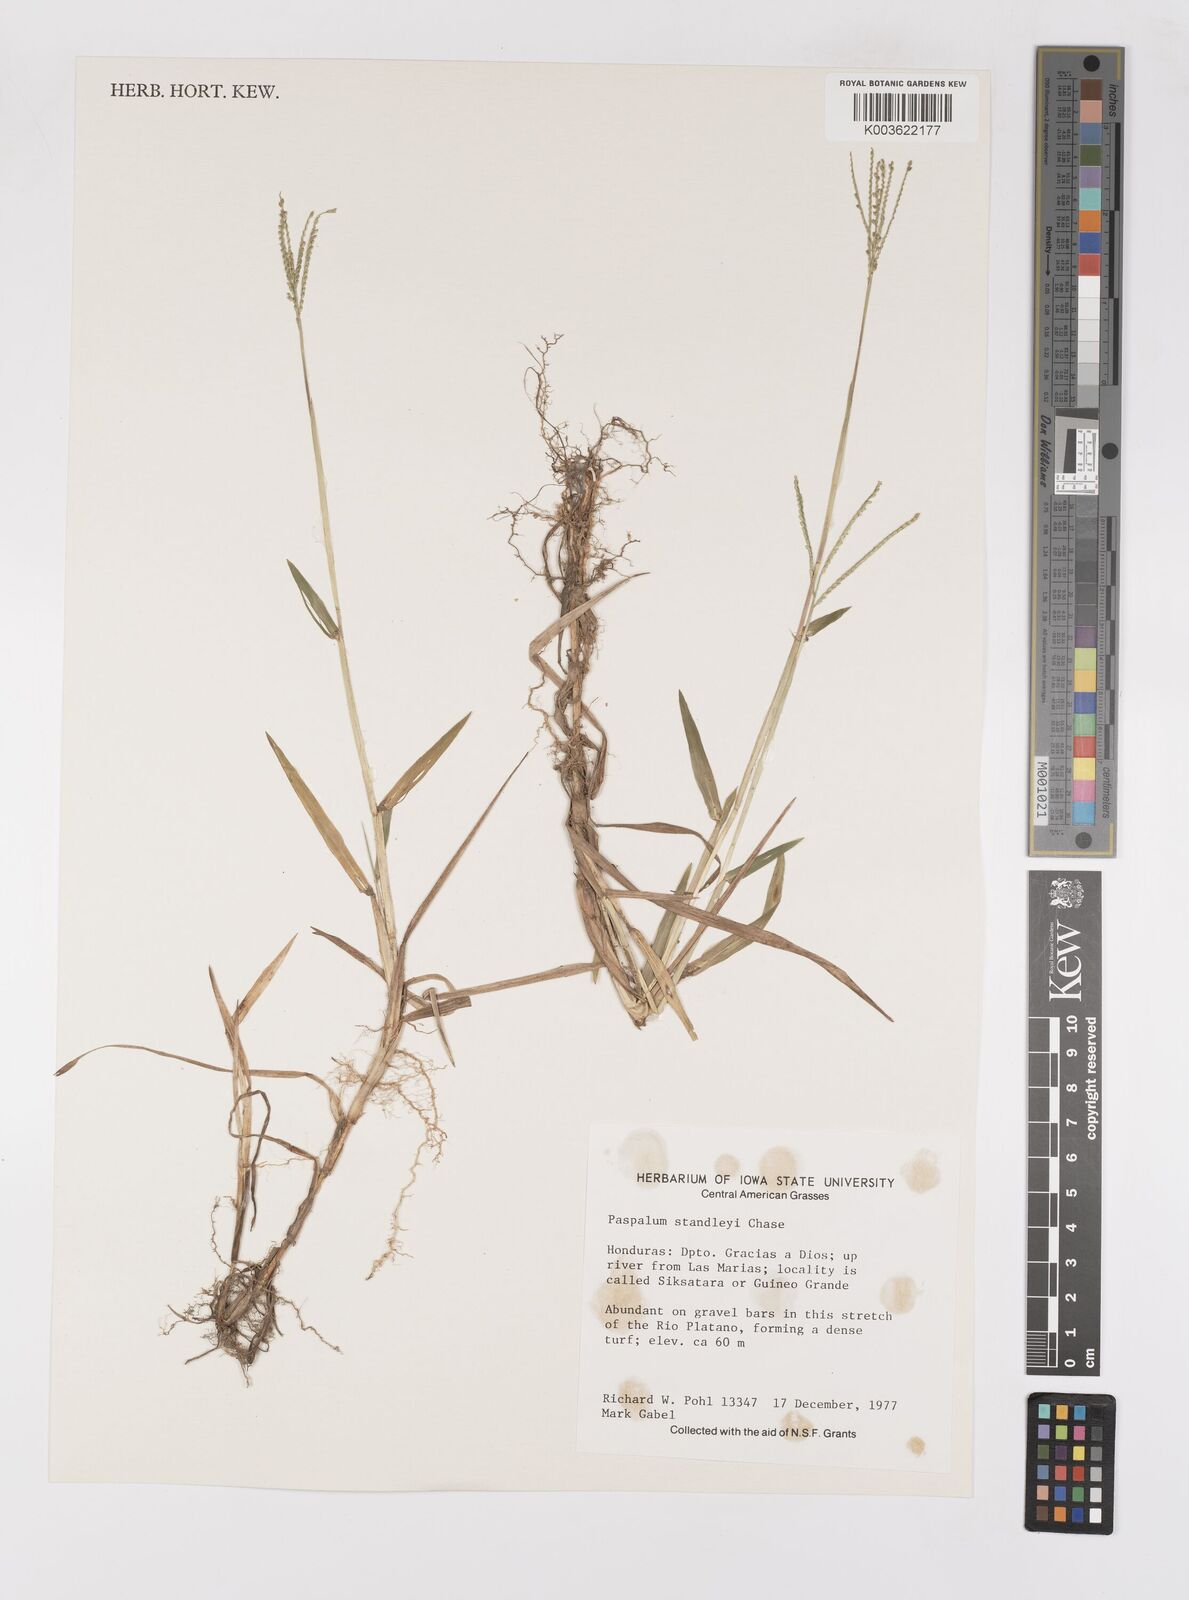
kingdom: Plantae
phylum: Tracheophyta
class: Liliopsida
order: Poales
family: Poaceae
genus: Paspalum
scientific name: Paspalum standleyi
